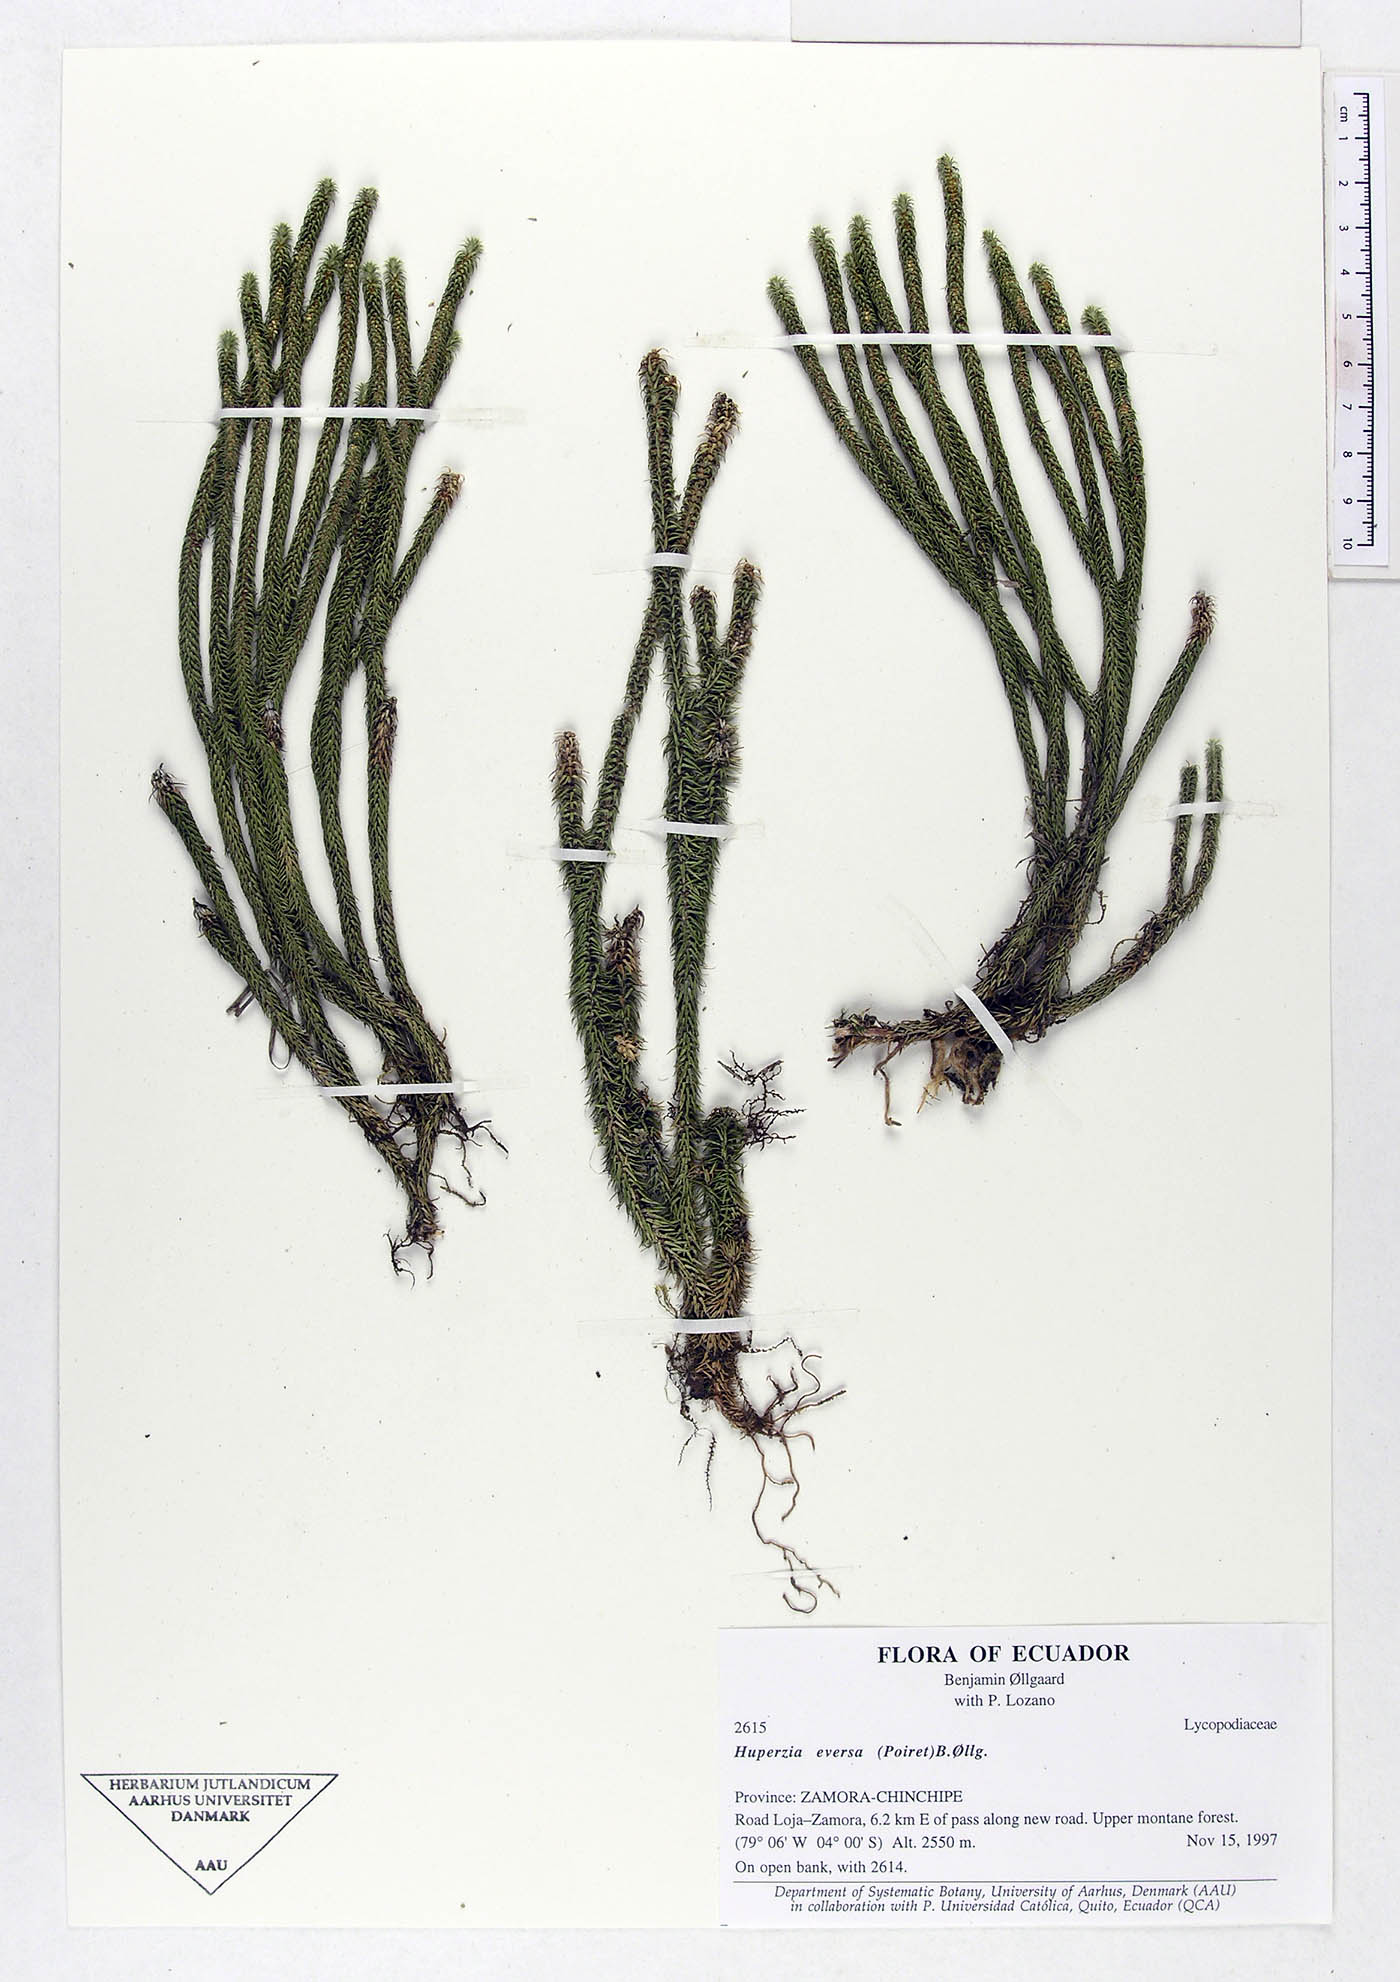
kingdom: Plantae
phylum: Tracheophyta
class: Lycopodiopsida
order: Lycopodiales
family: Lycopodiaceae
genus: Phlegmariurus
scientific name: Phlegmariurus eversus
